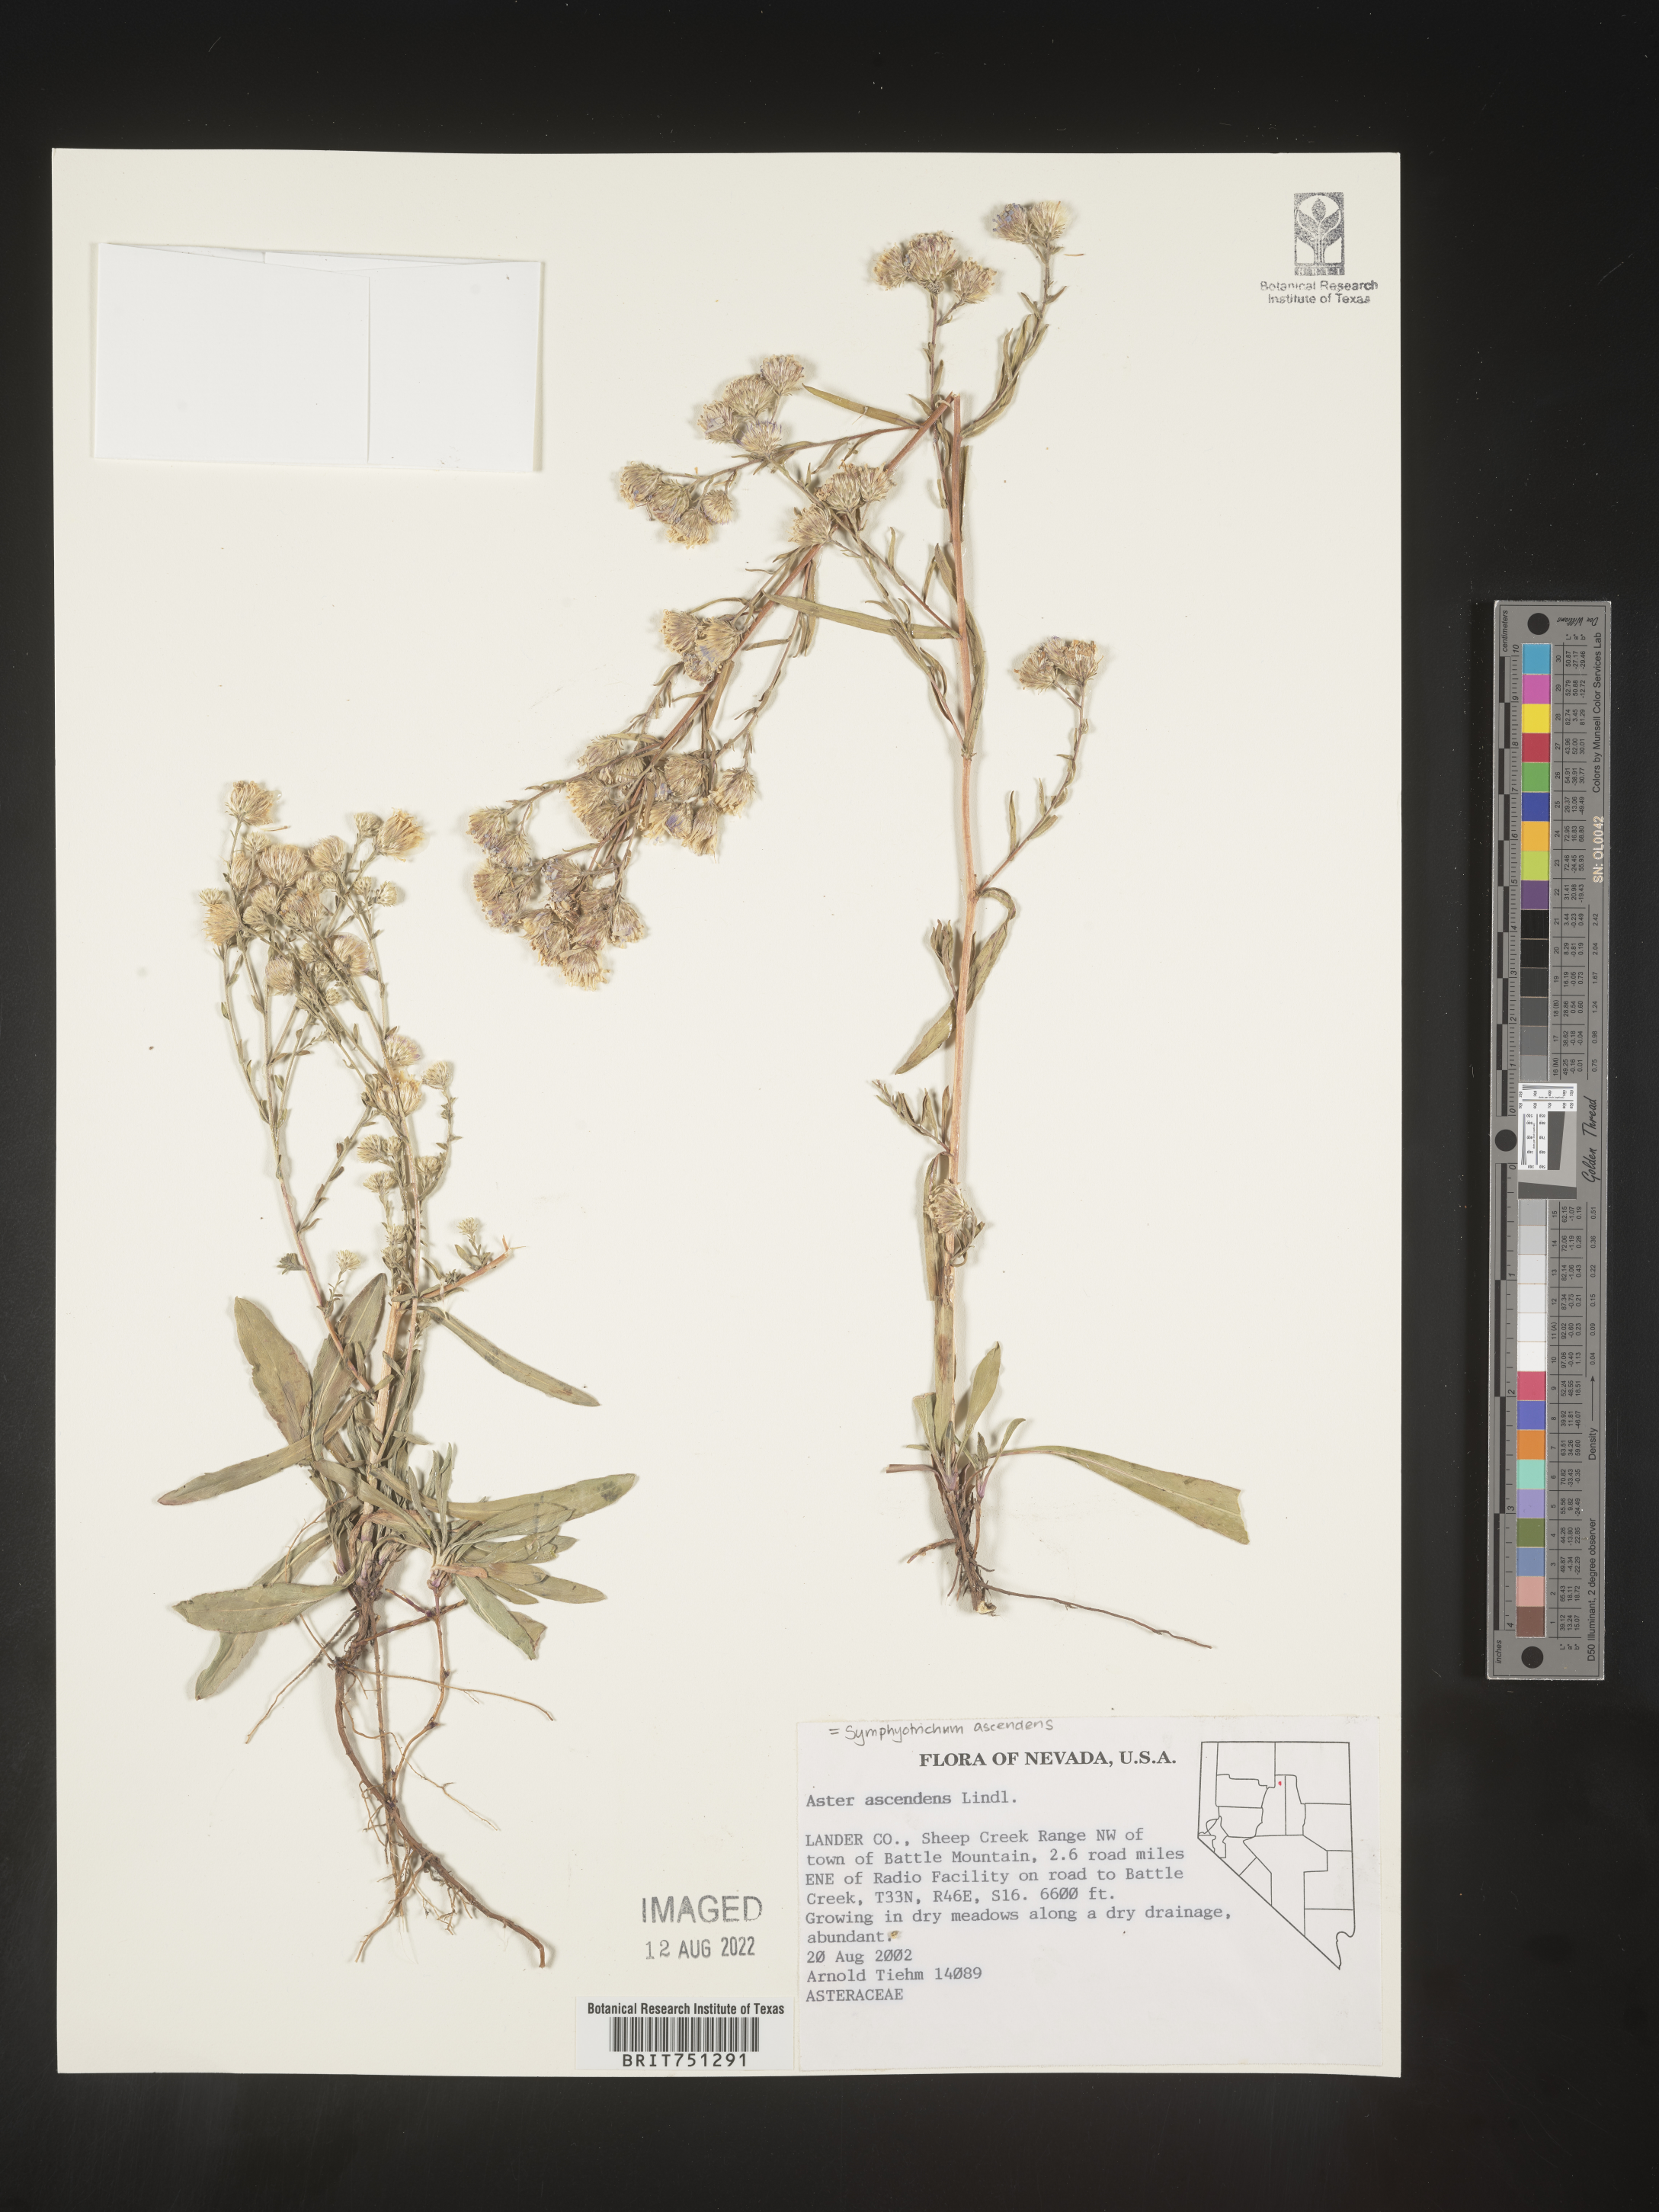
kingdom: Plantae
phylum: Tracheophyta
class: Magnoliopsida
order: Asterales
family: Asteraceae
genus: Symphyotrichum
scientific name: Symphyotrichum ascendens
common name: Intermountain aster
